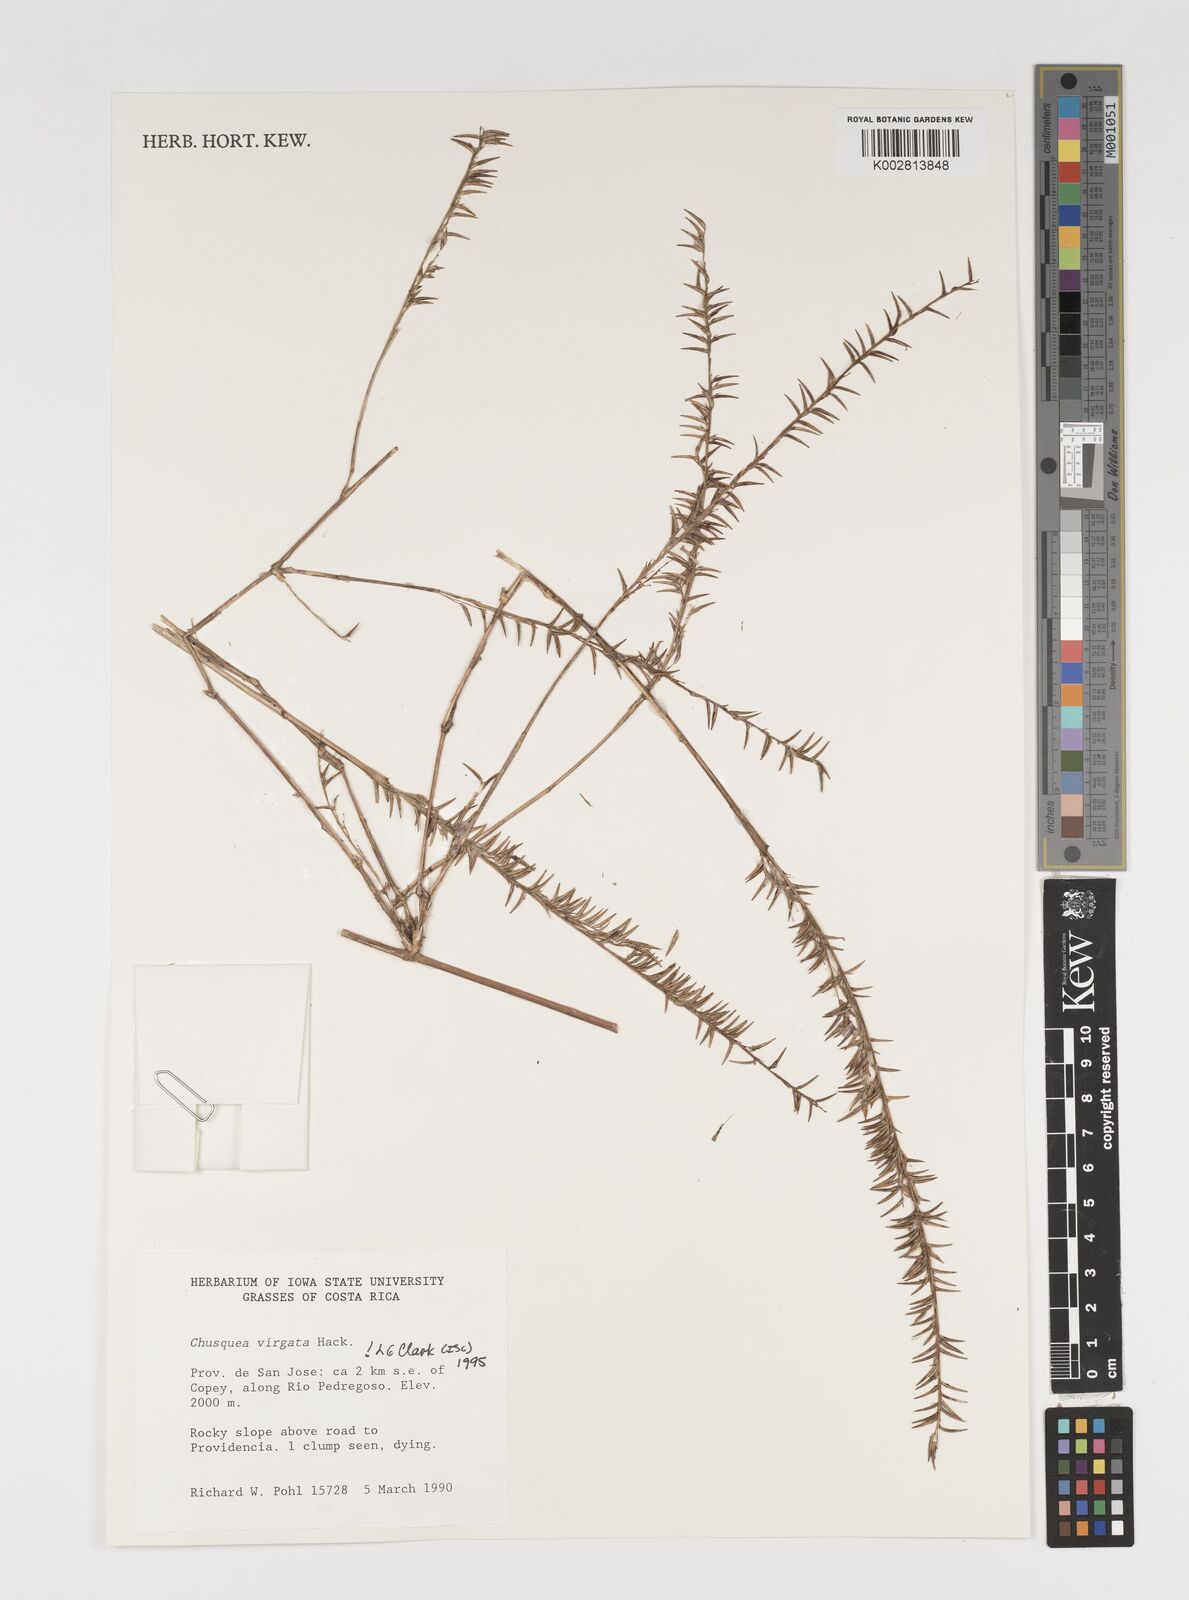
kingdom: Plantae
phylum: Tracheophyta
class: Liliopsida
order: Poales
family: Poaceae
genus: Chusquea
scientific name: Chusquea virgata
